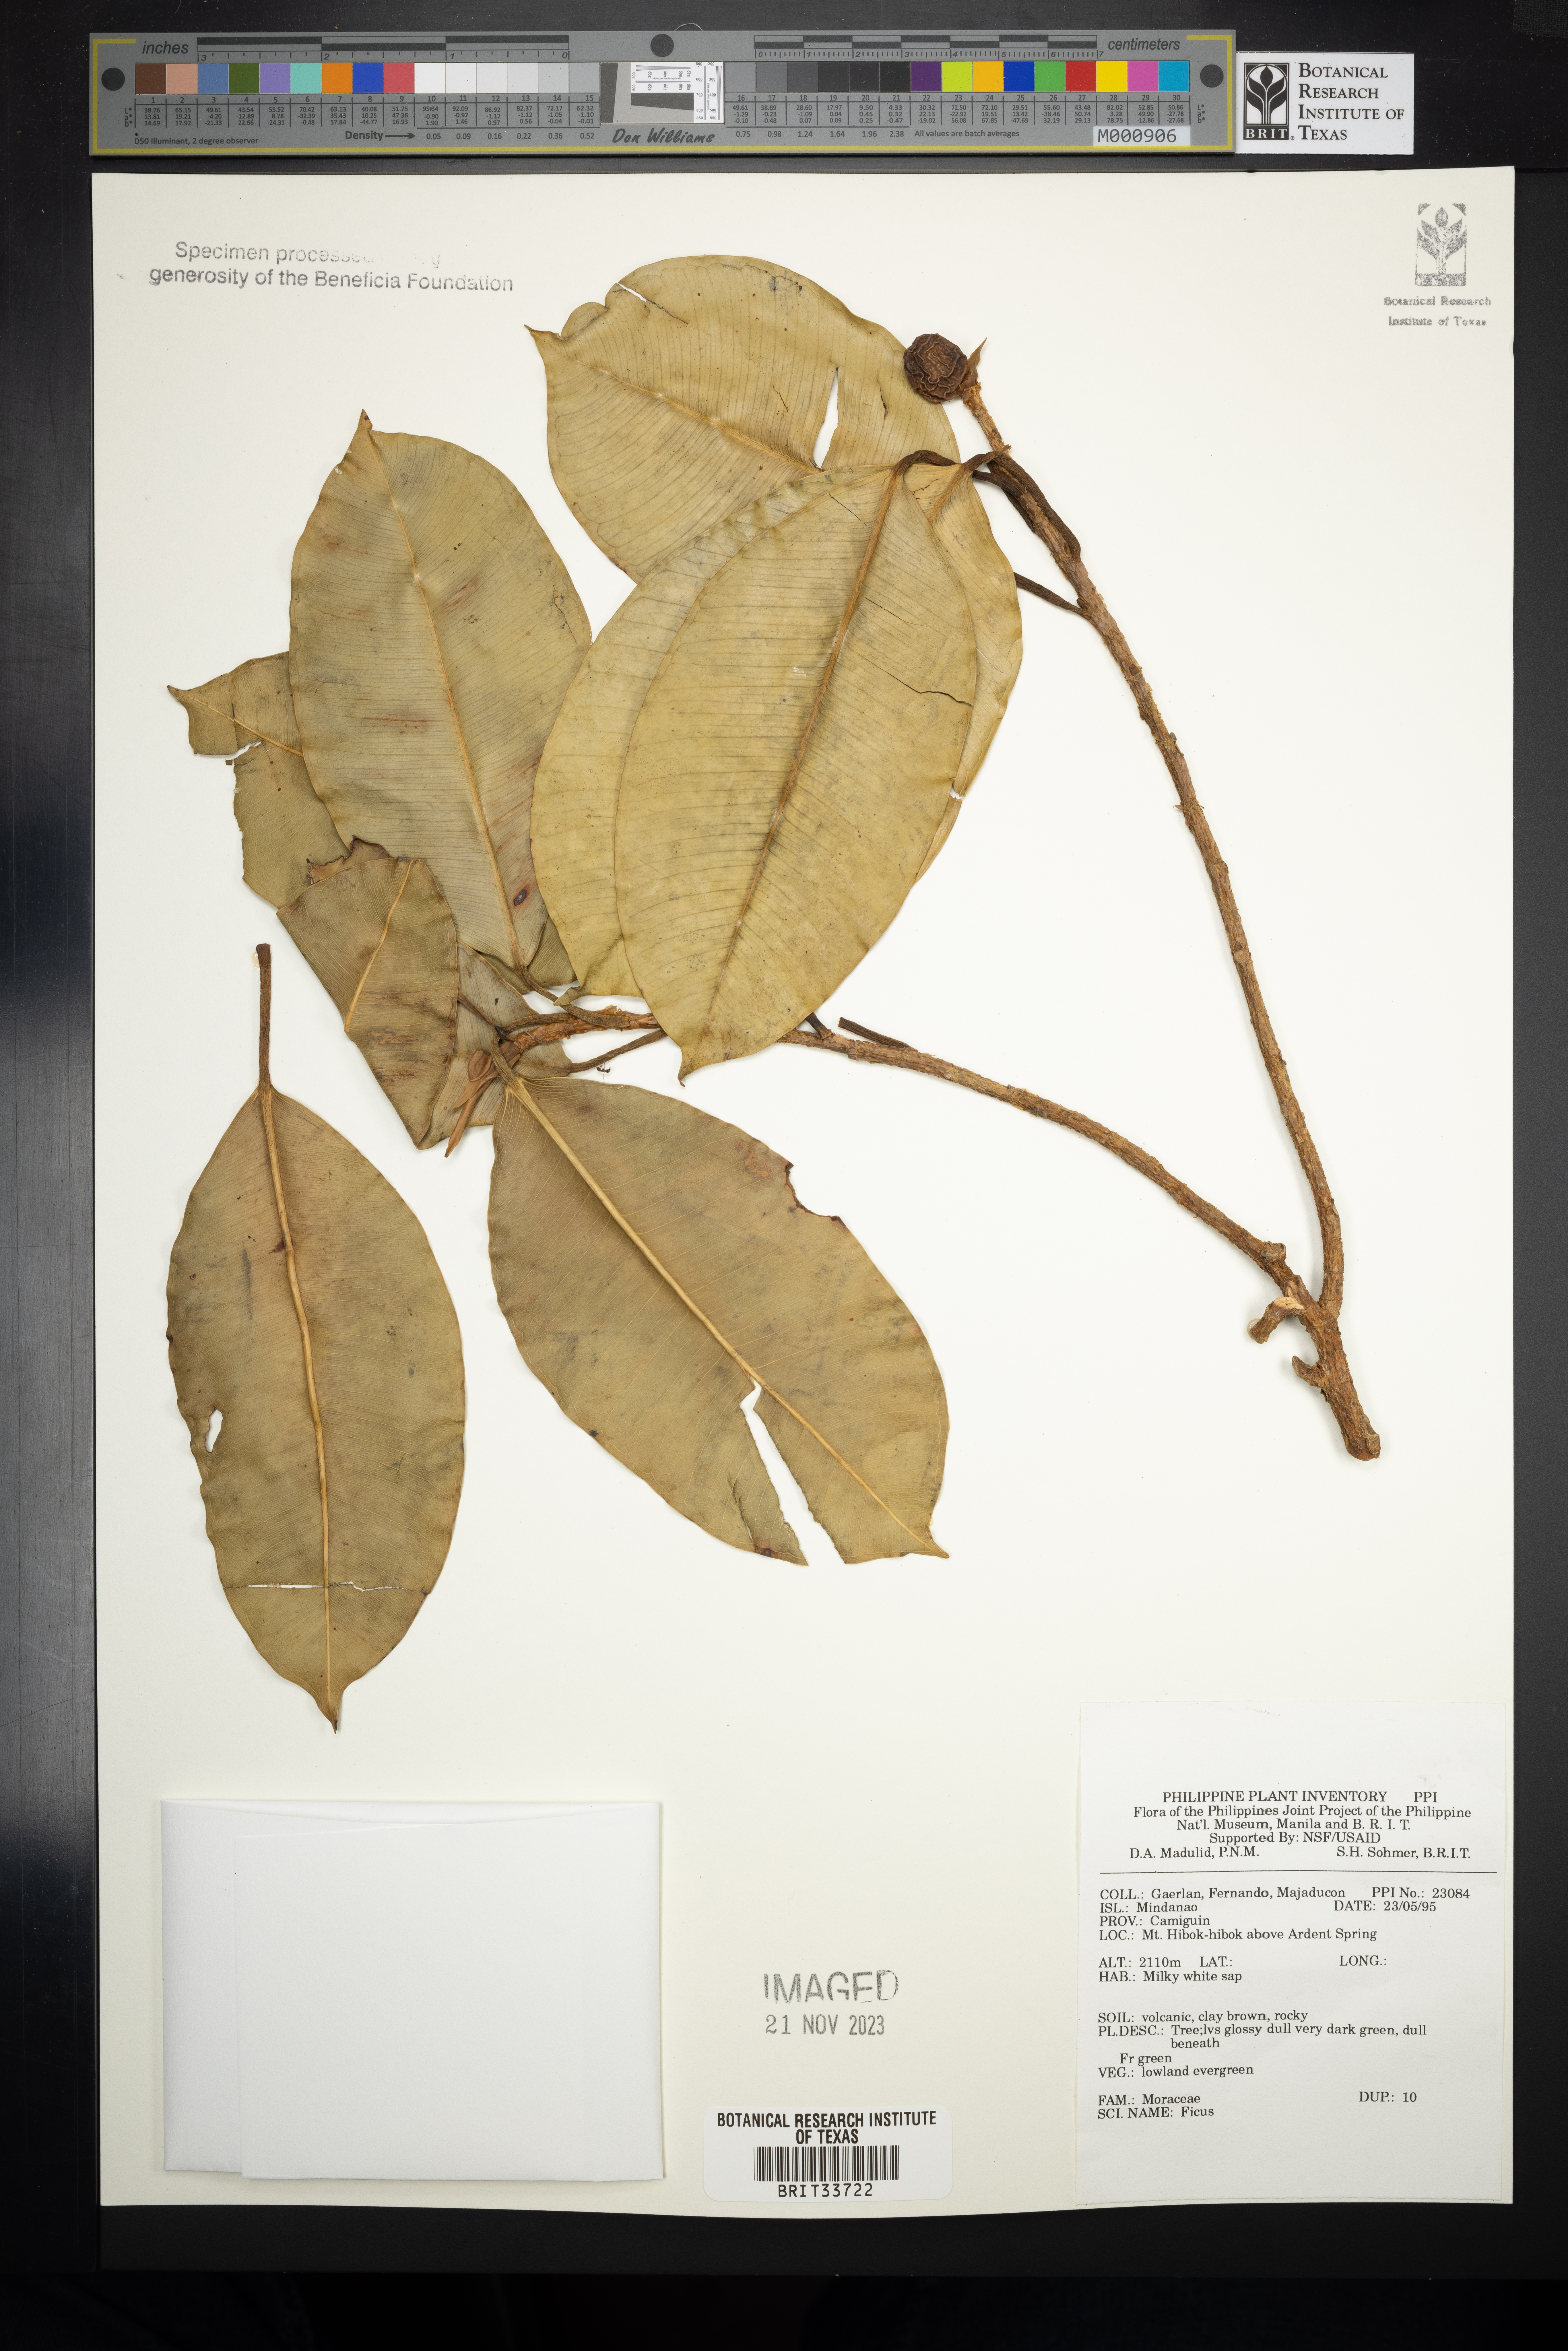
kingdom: Plantae
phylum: Tracheophyta
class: Magnoliopsida
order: Rosales
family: Moraceae
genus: Ficus
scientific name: Ficus
